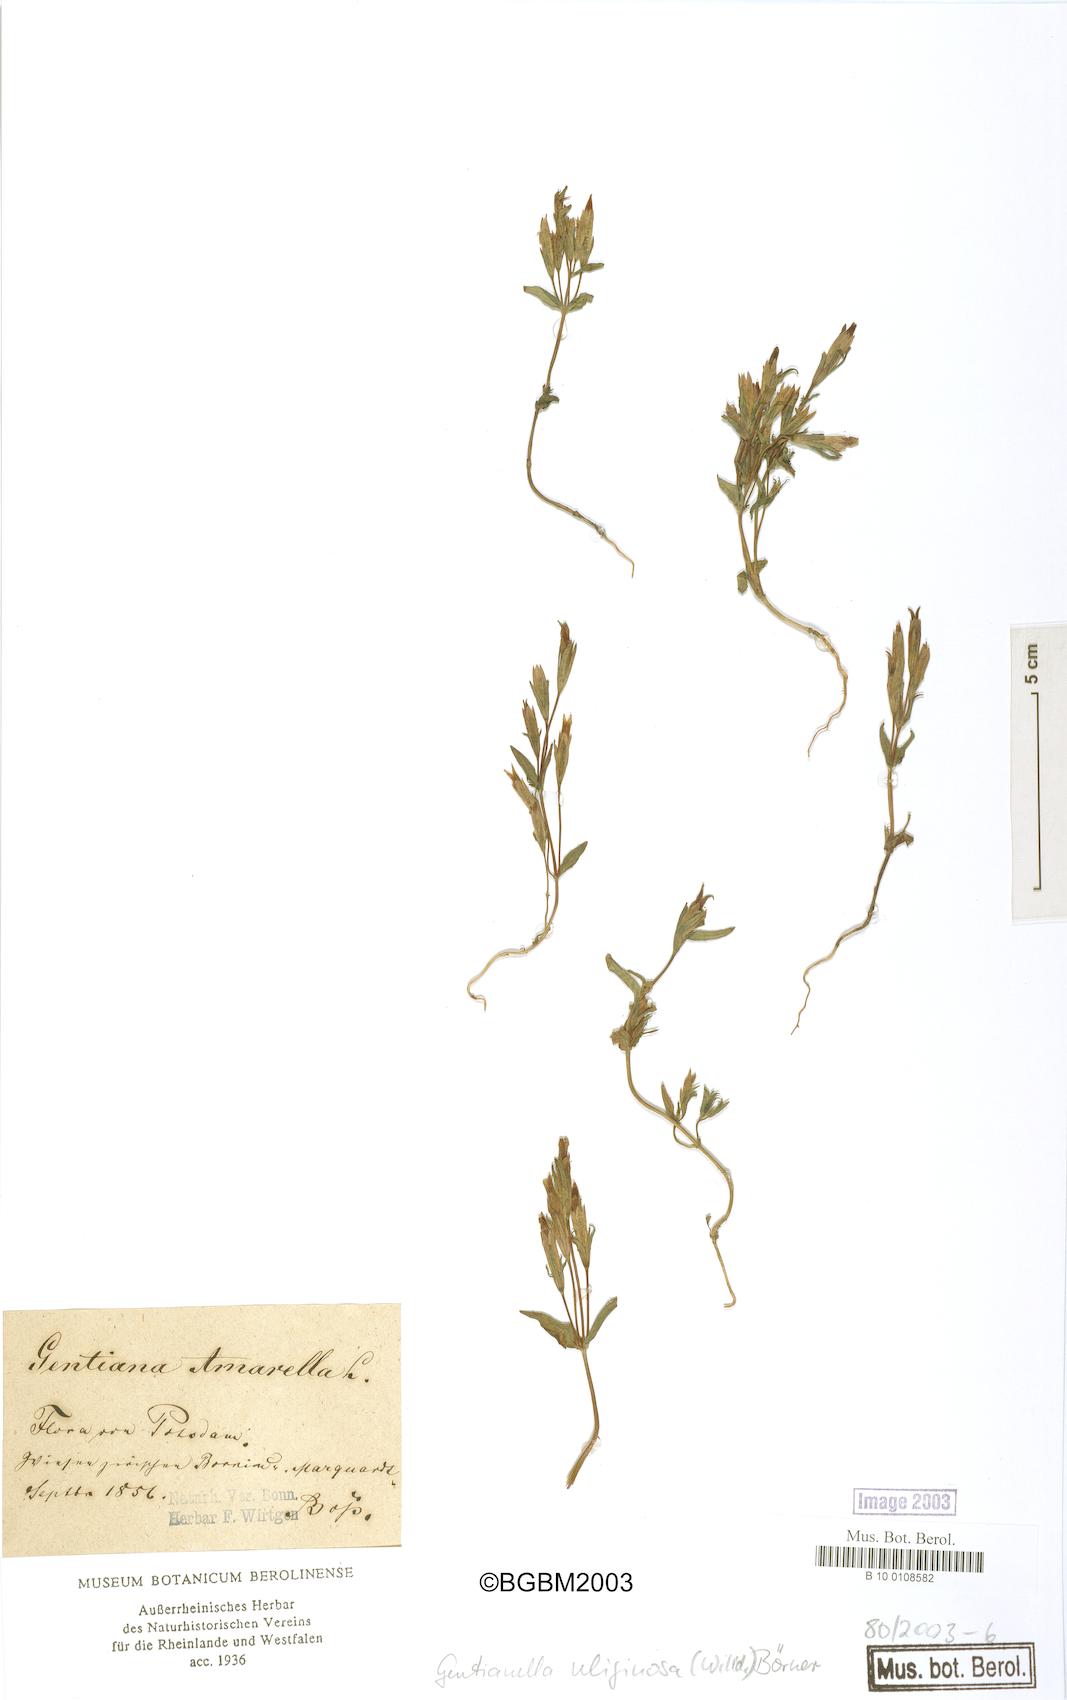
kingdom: Plantae
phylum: Tracheophyta
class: Magnoliopsida
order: Gentianales
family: Gentianaceae
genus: Gentianella
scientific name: Gentianella uliginosa
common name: Dune gentian
